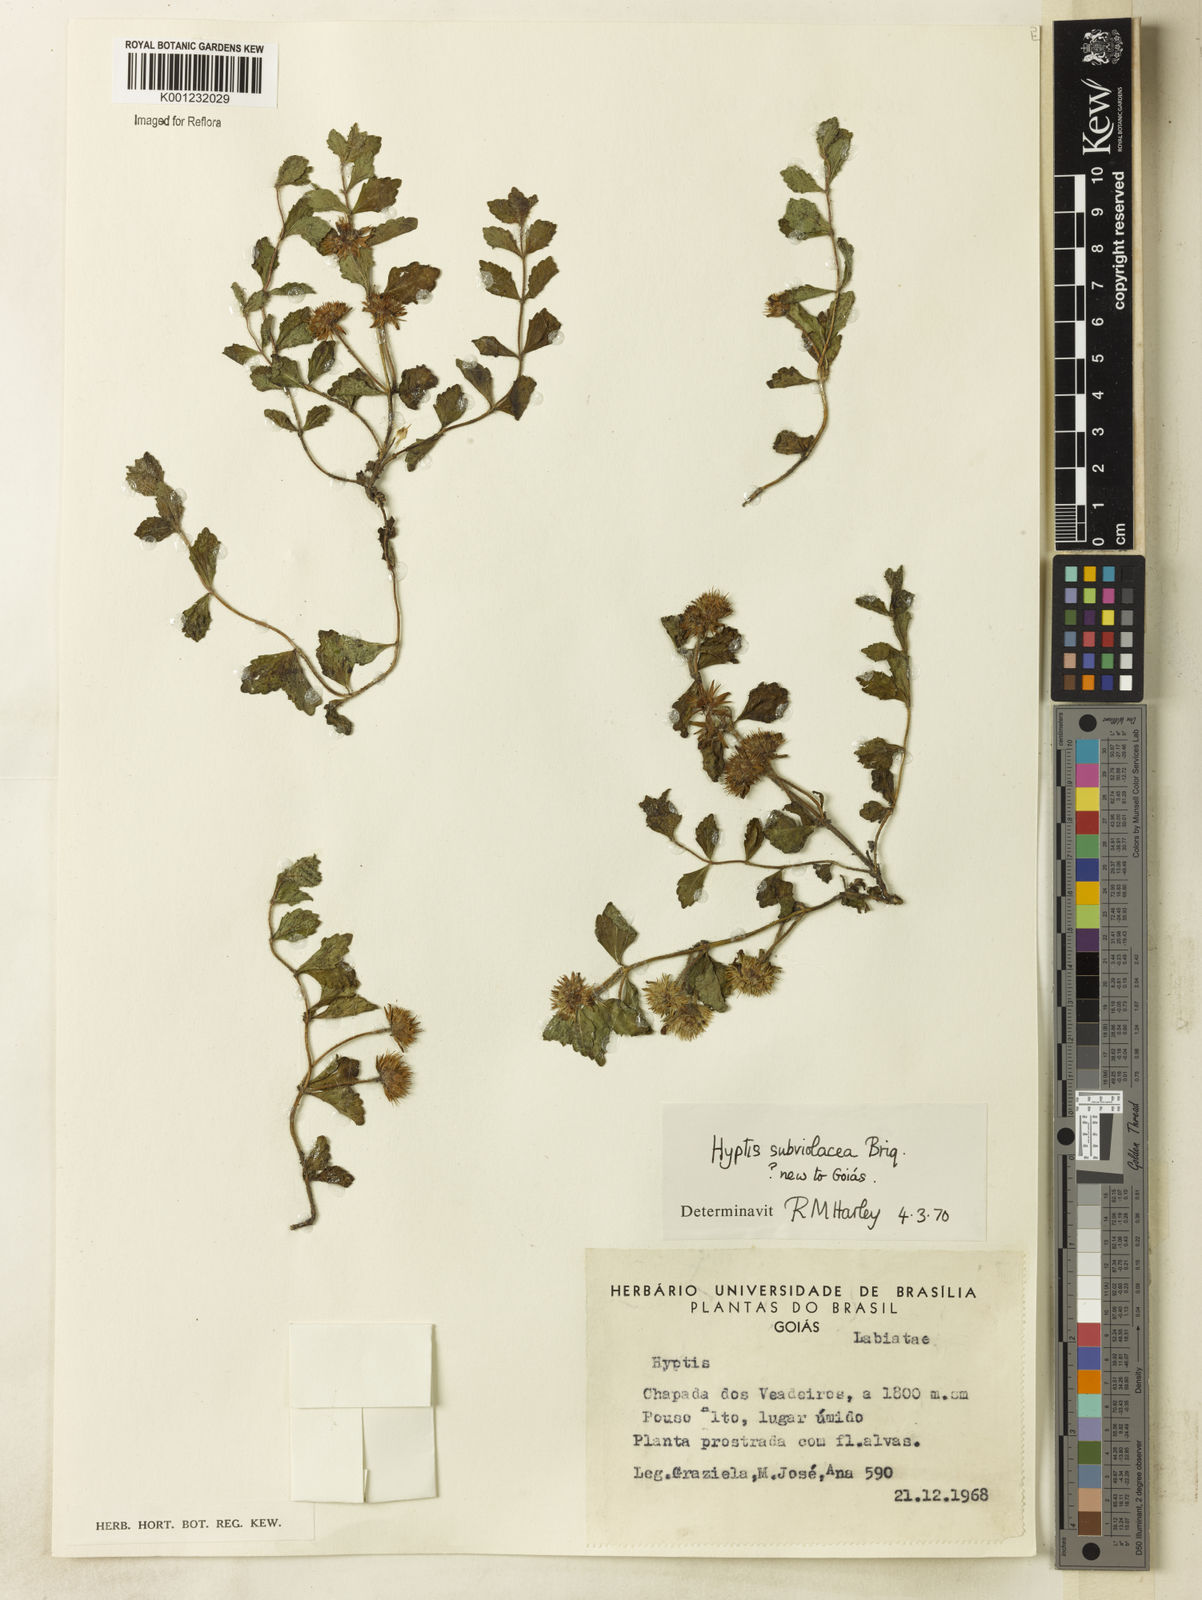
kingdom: Plantae
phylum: Tracheophyta
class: Magnoliopsida
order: Lamiales
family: Lamiaceae
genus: Hyptis
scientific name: Hyptis subviolacea
